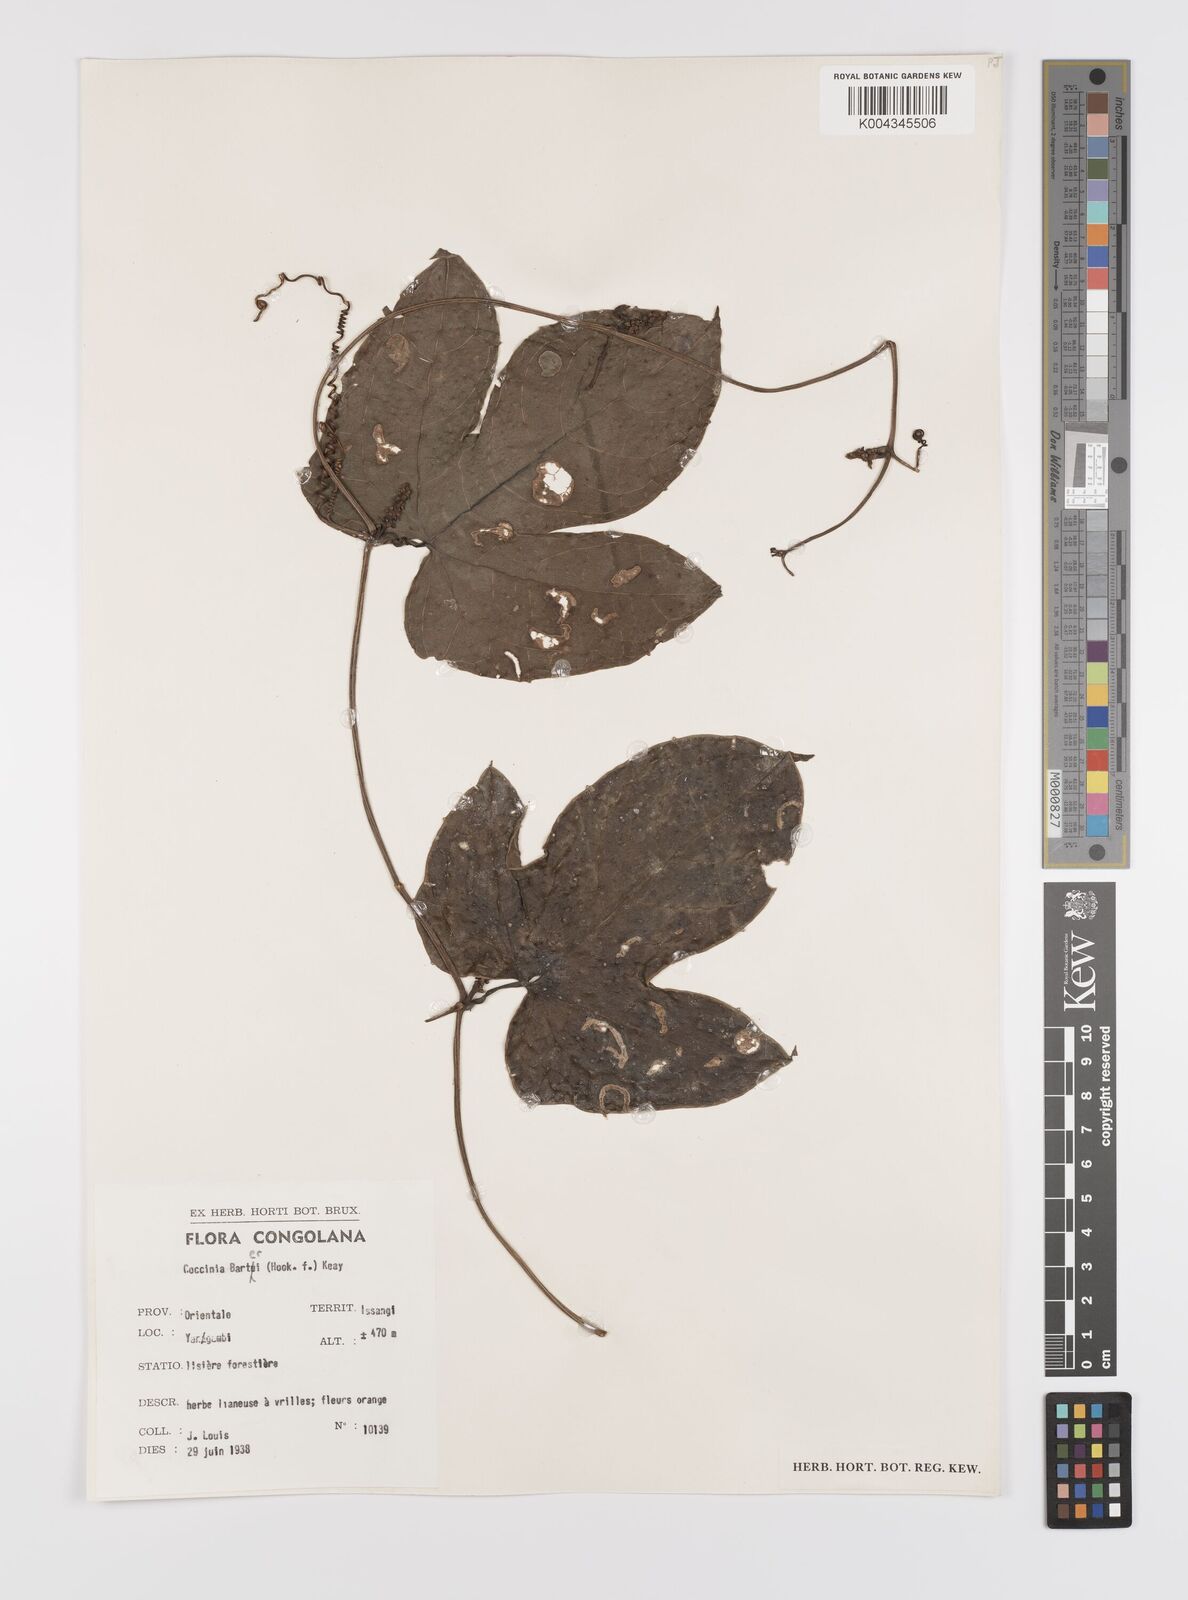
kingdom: Plantae
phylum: Tracheophyta
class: Magnoliopsida
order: Cucurbitales
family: Cucurbitaceae
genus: Coccinia
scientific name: Coccinia barteri
